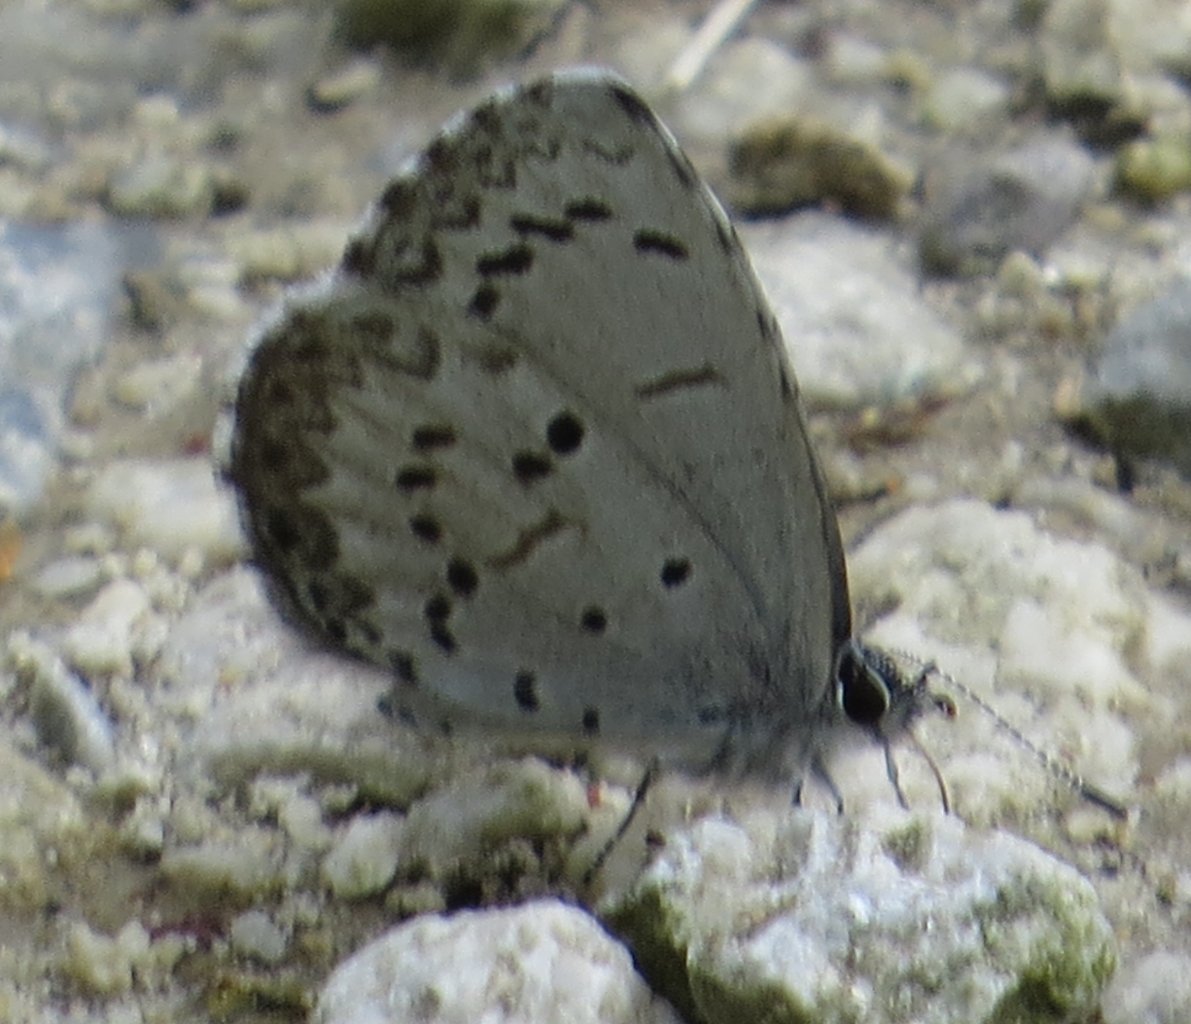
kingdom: Animalia
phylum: Arthropoda
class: Insecta
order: Lepidoptera
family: Lycaenidae
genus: Celastrina
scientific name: Celastrina lucia
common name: Northern Spring Azure
